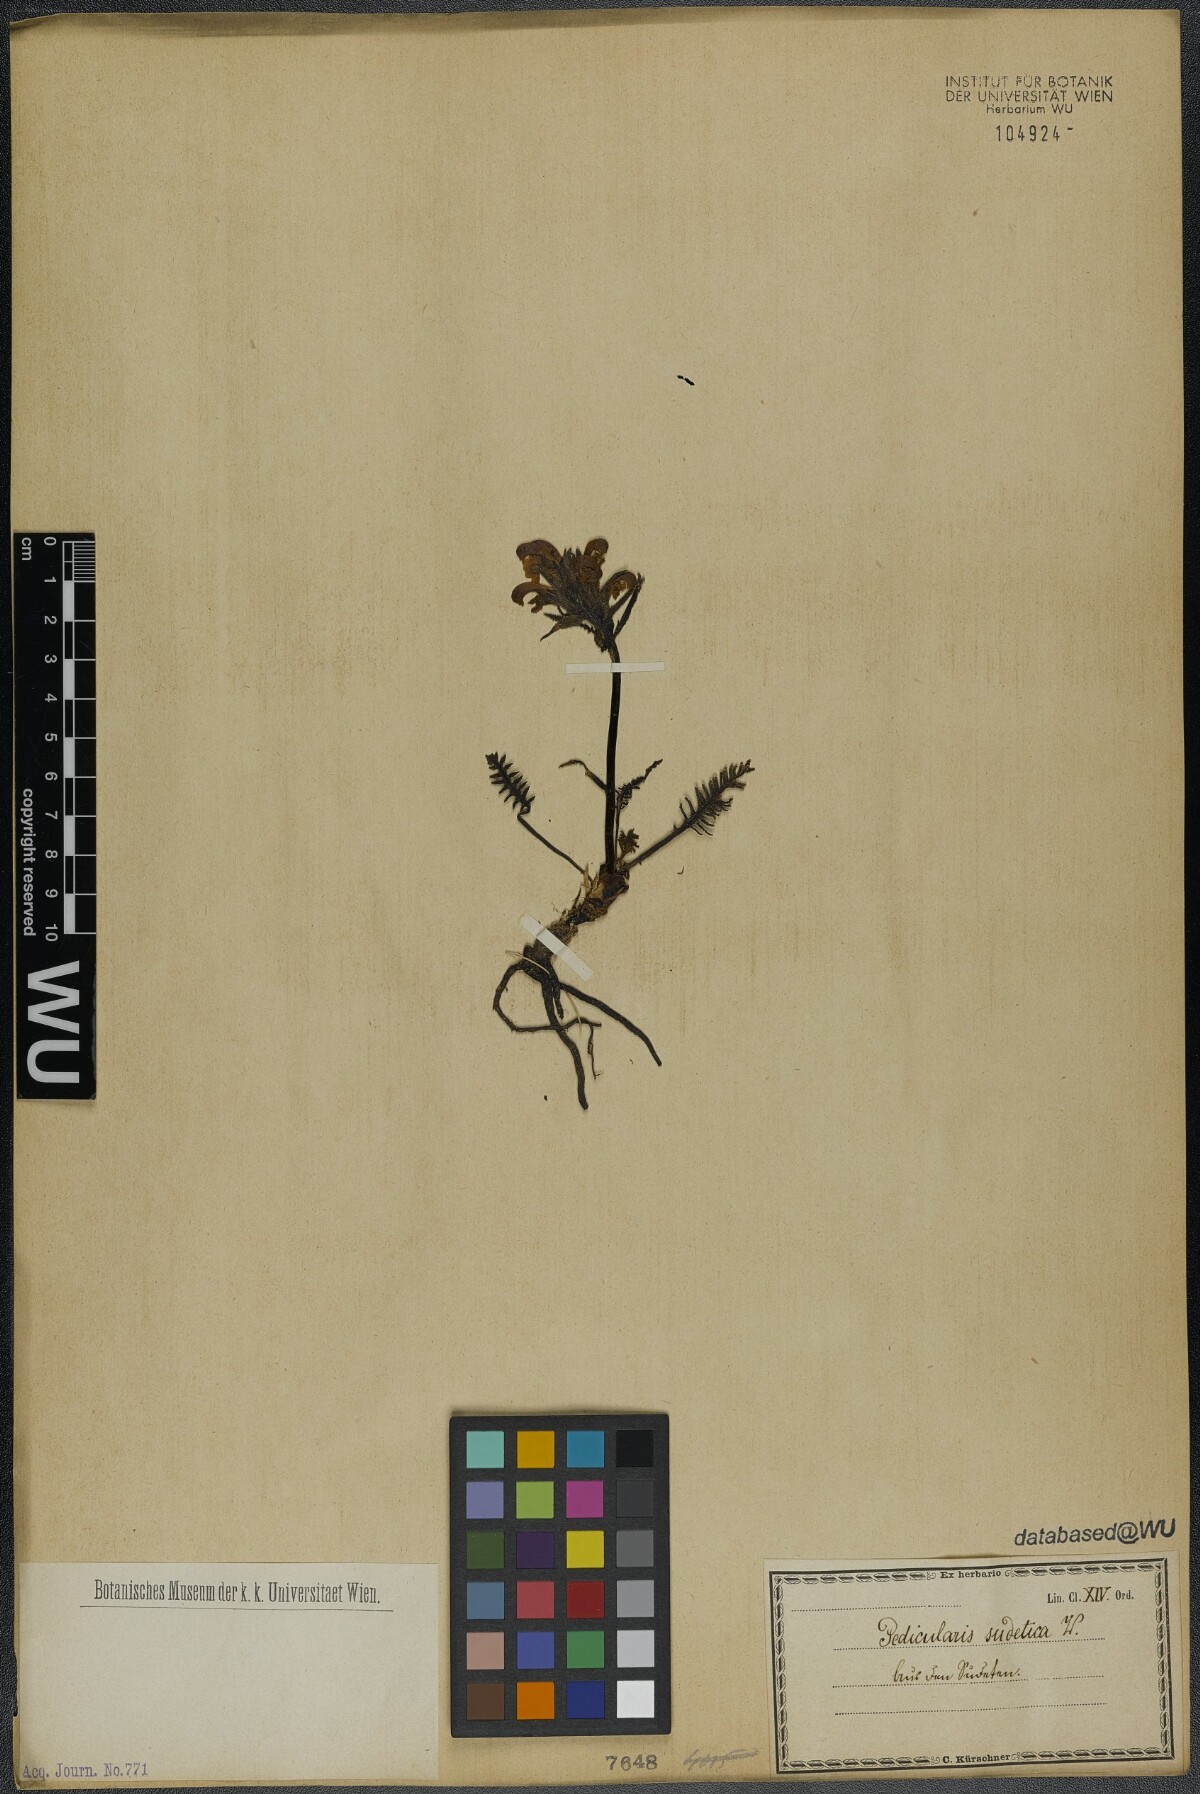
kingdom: Plantae
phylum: Tracheophyta
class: Magnoliopsida
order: Lamiales
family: Orobanchaceae
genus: Pedicularis
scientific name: Pedicularis sudetica
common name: Sudeten lousewort
